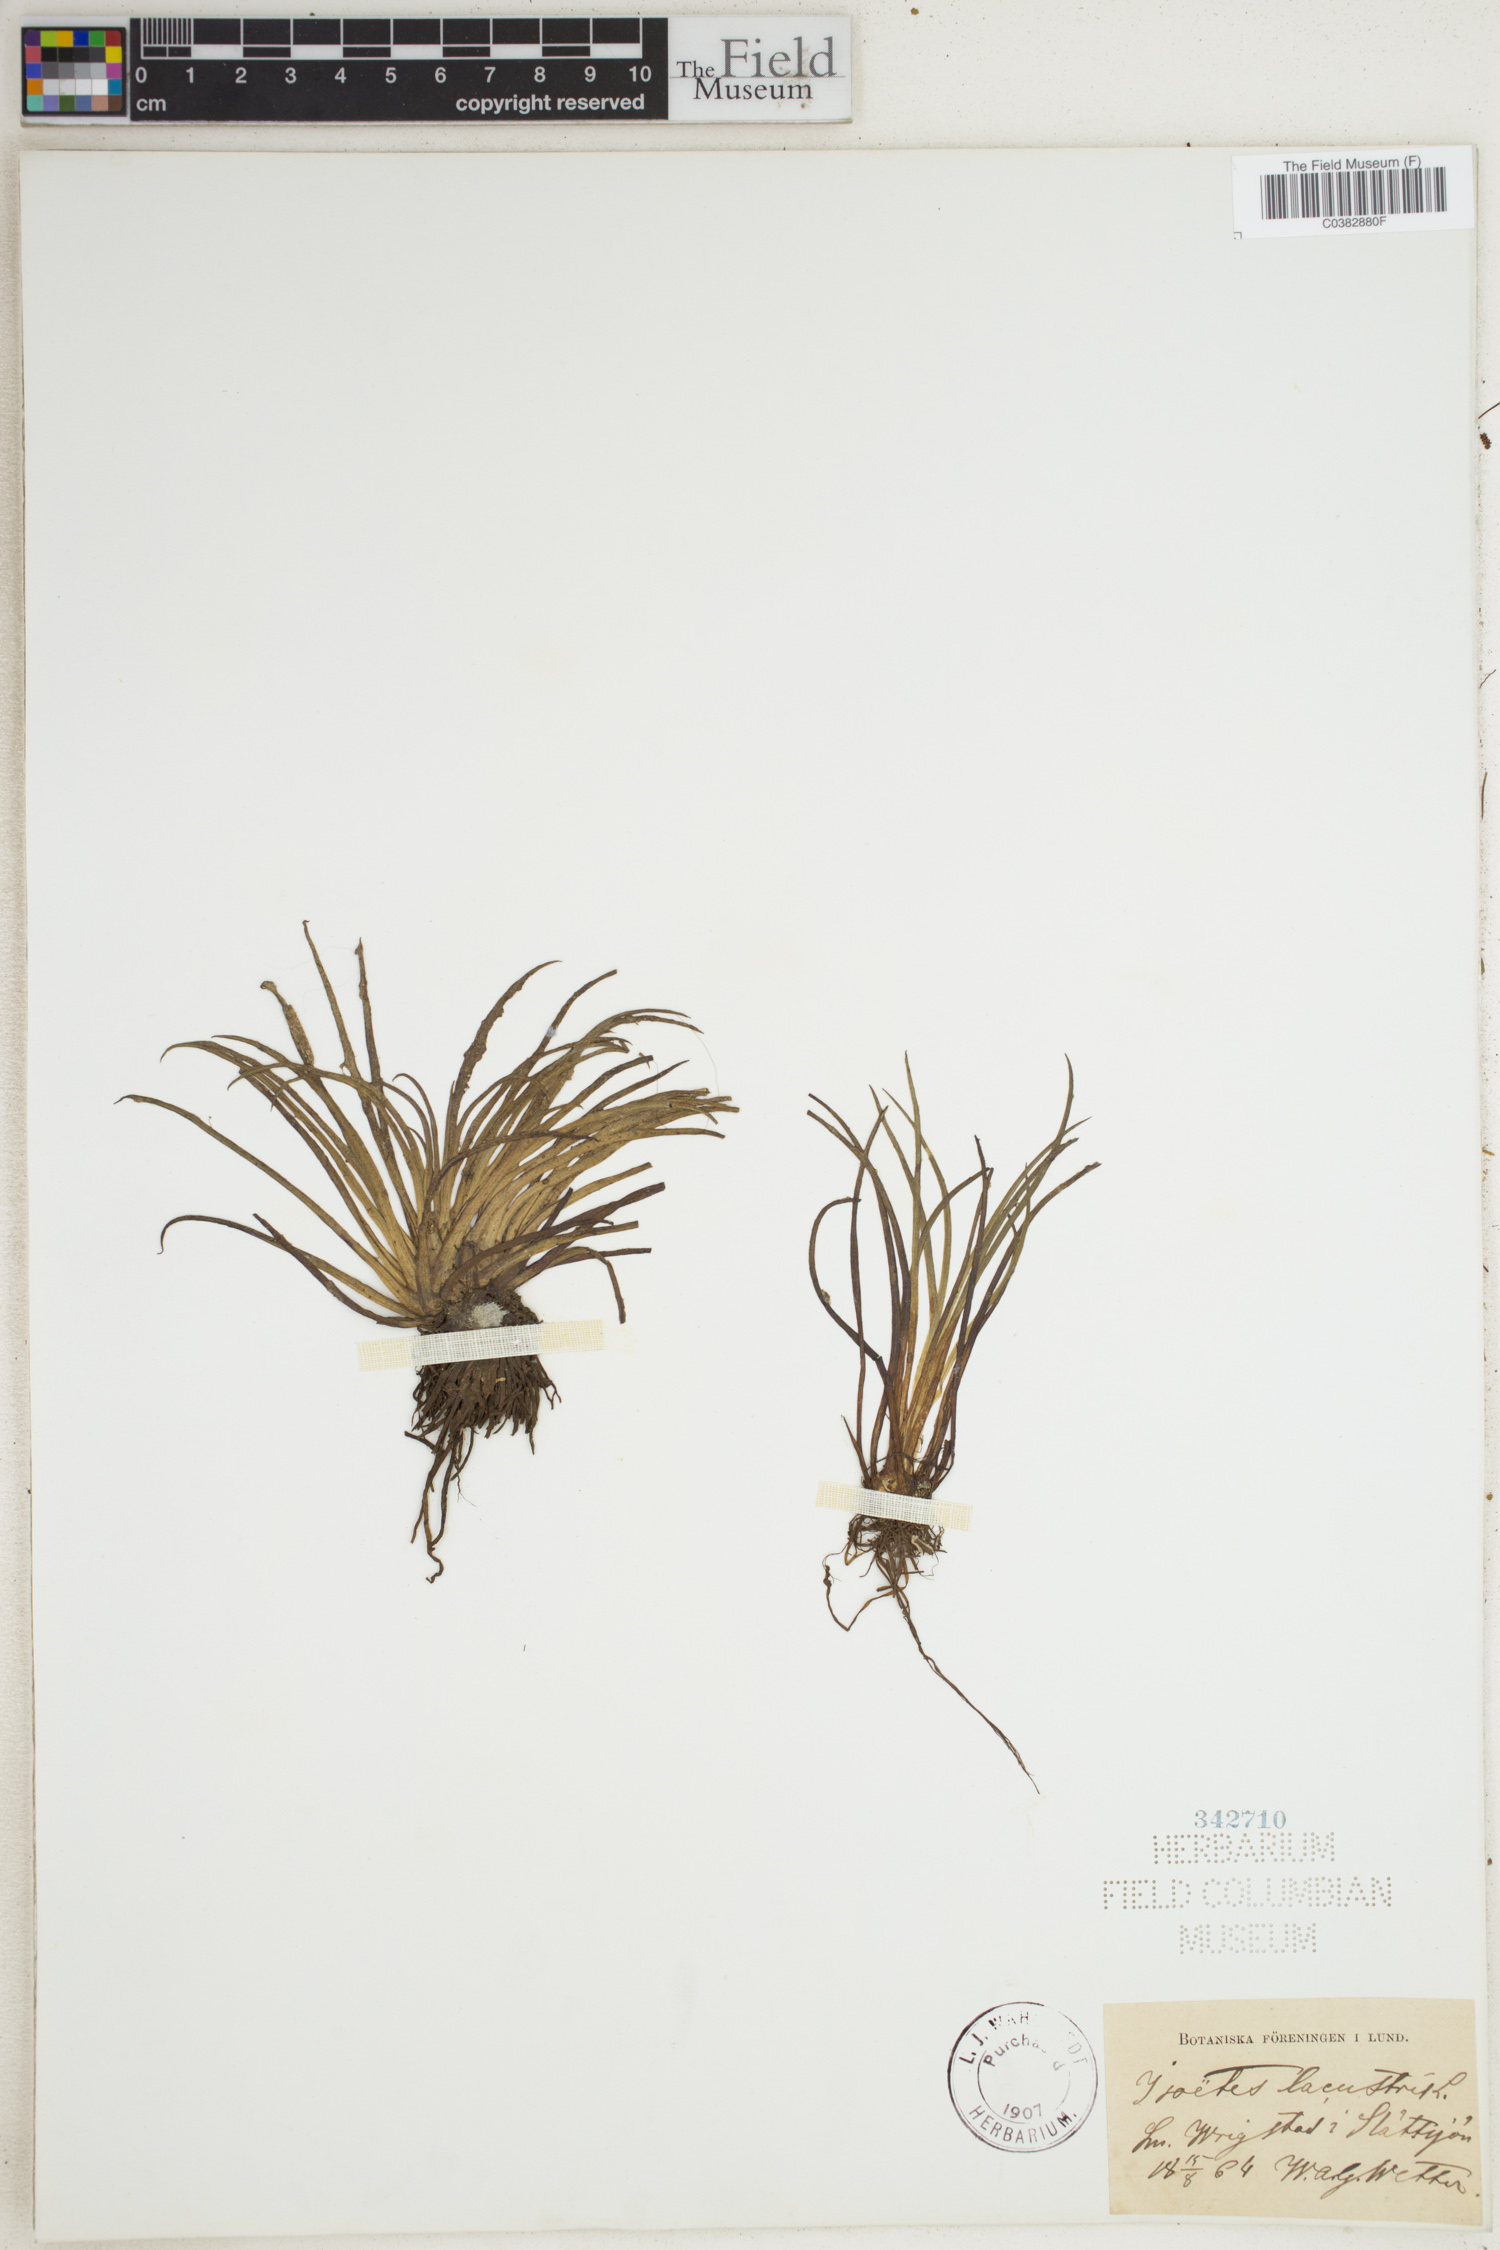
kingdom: Plantae
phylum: Tracheophyta
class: Lycopodiopsida
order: Isoetales
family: Isoetaceae
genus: Isoetes
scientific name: Isoetes lacustris
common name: Common quillwort
